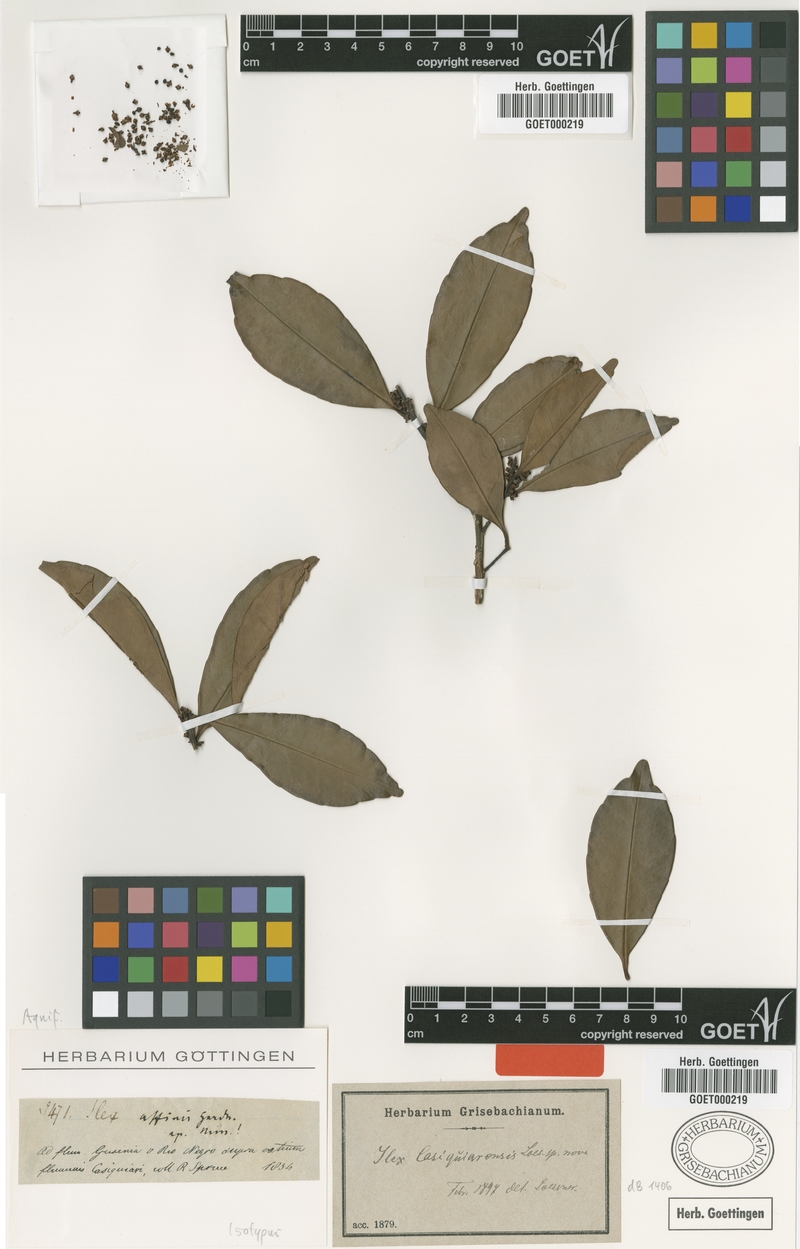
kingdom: Plantae
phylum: Tracheophyta
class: Magnoliopsida
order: Aquifoliales
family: Aquifoliaceae
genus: Ilex
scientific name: Ilex casiquiarensis
